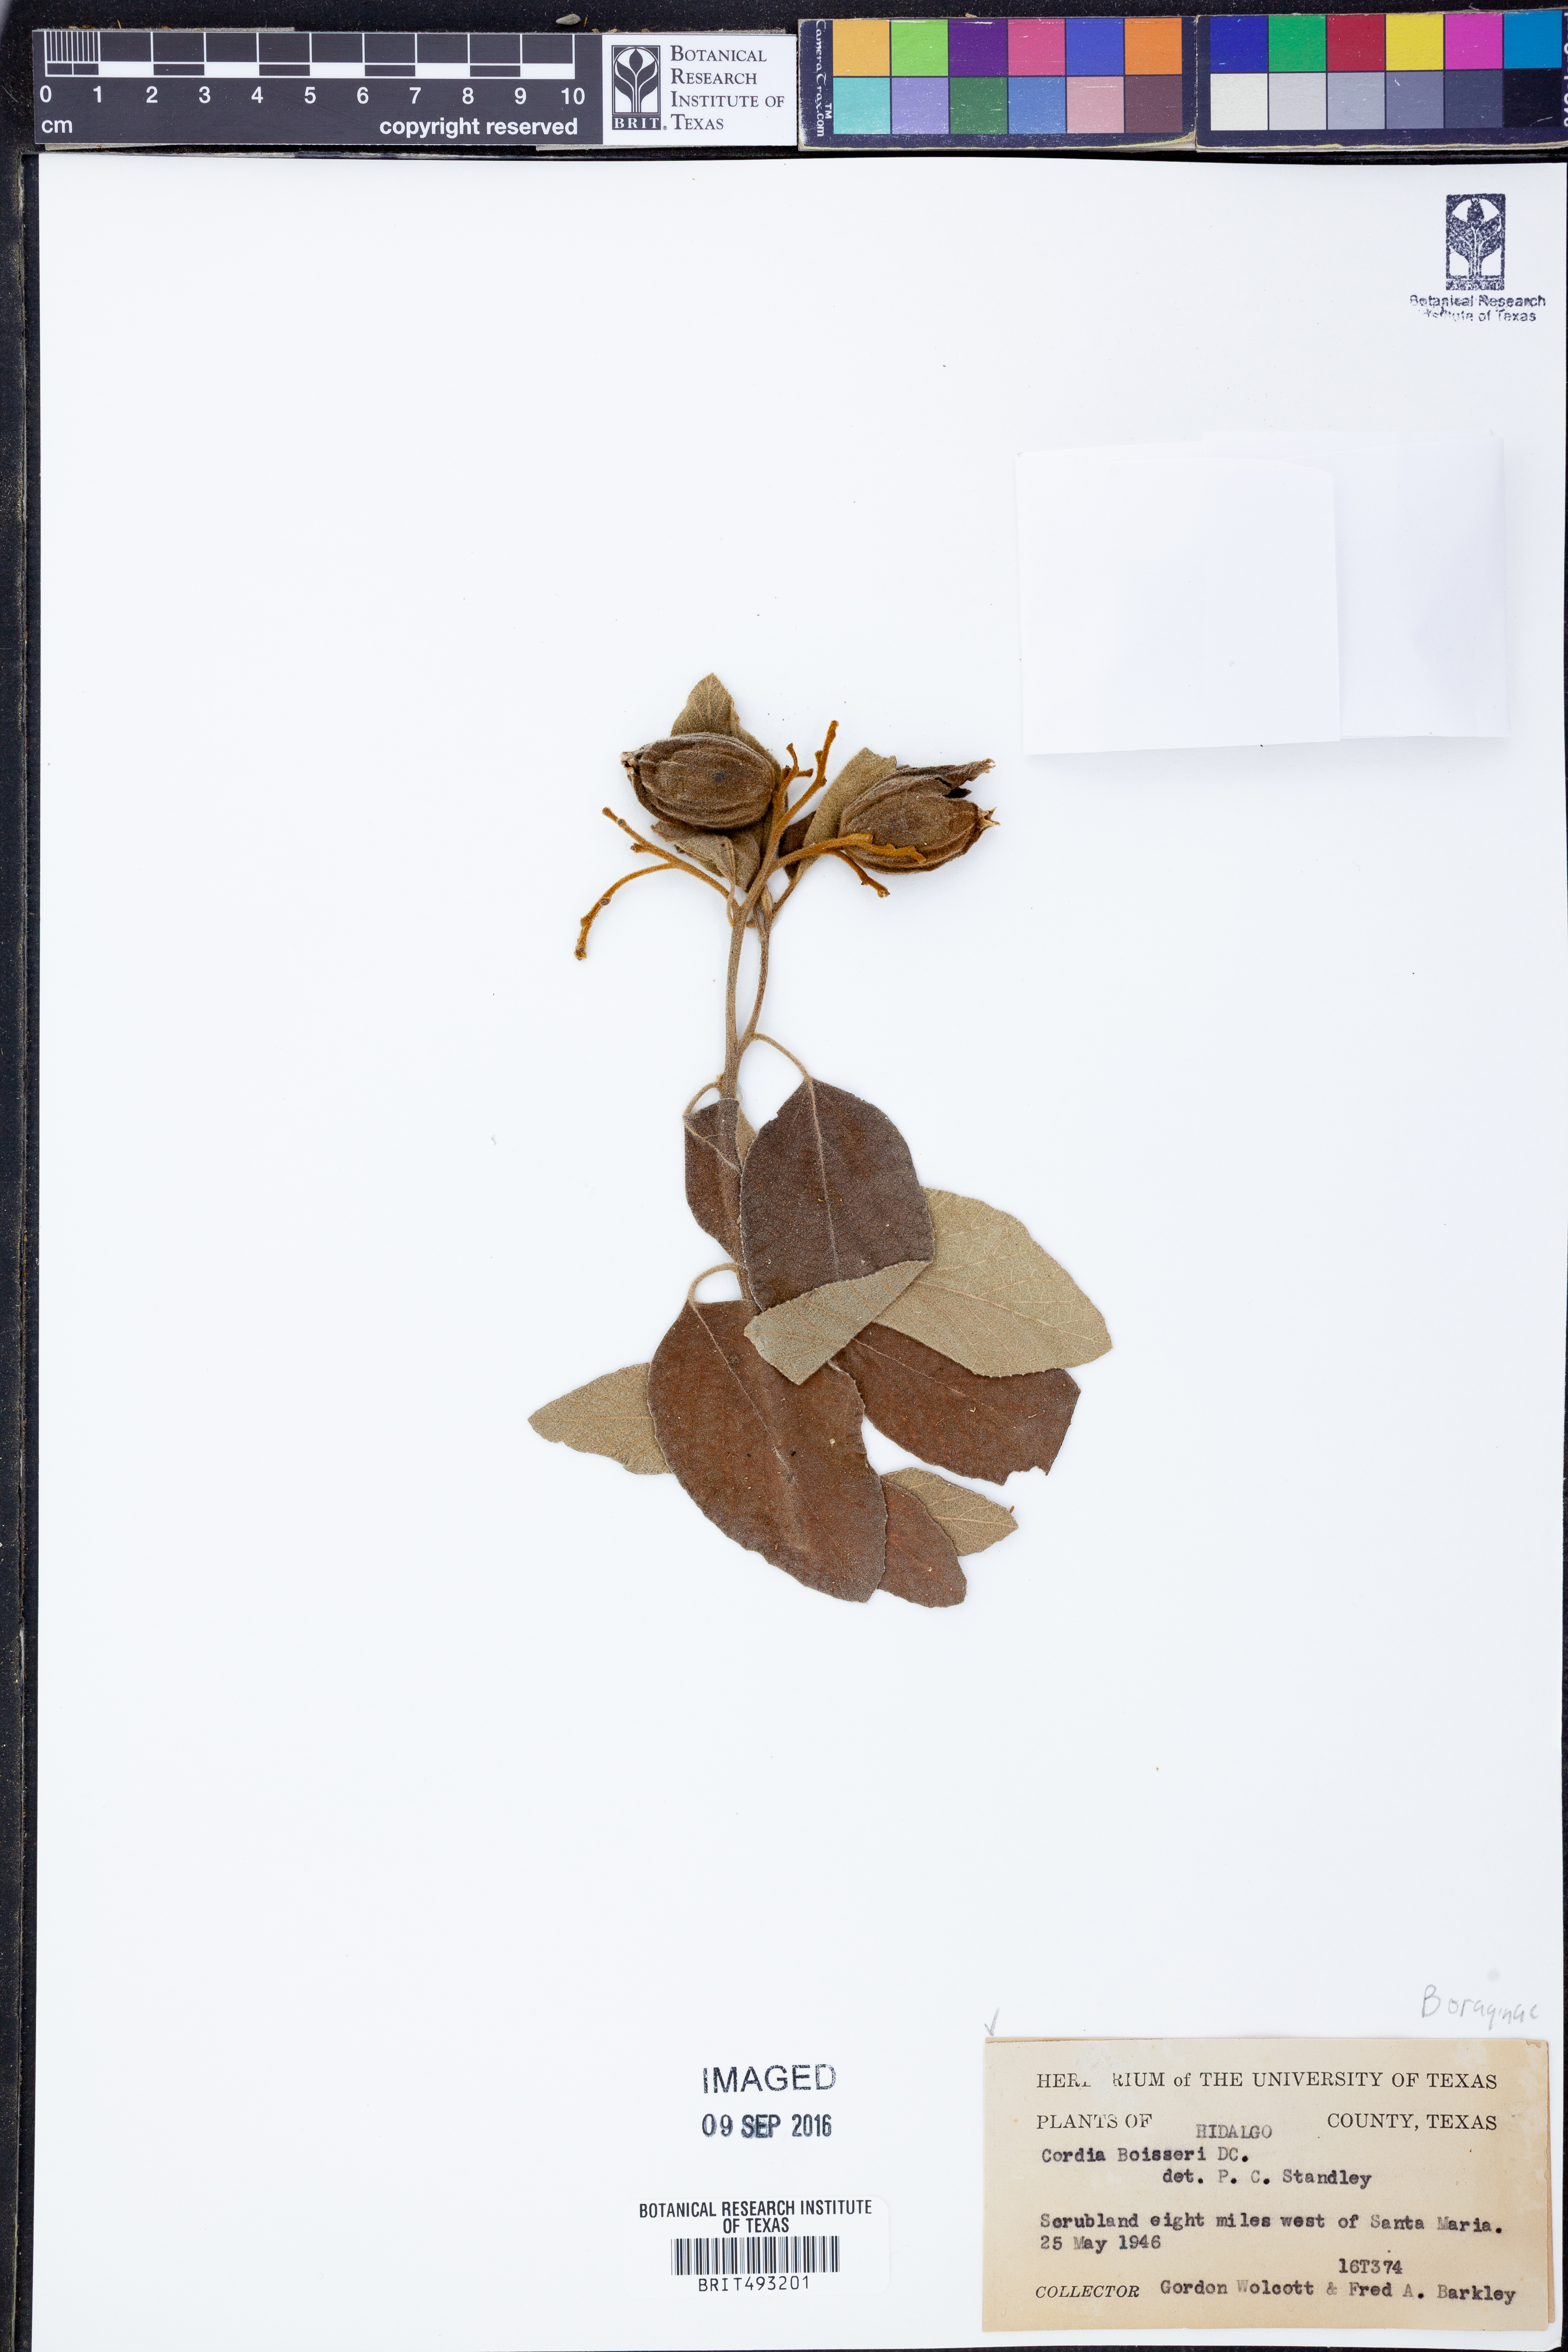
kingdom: Plantae
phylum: Tracheophyta
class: Magnoliopsida
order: Boraginales
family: Cordiaceae
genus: Cordia
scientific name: Cordia boissieri
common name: Mexican-olive
